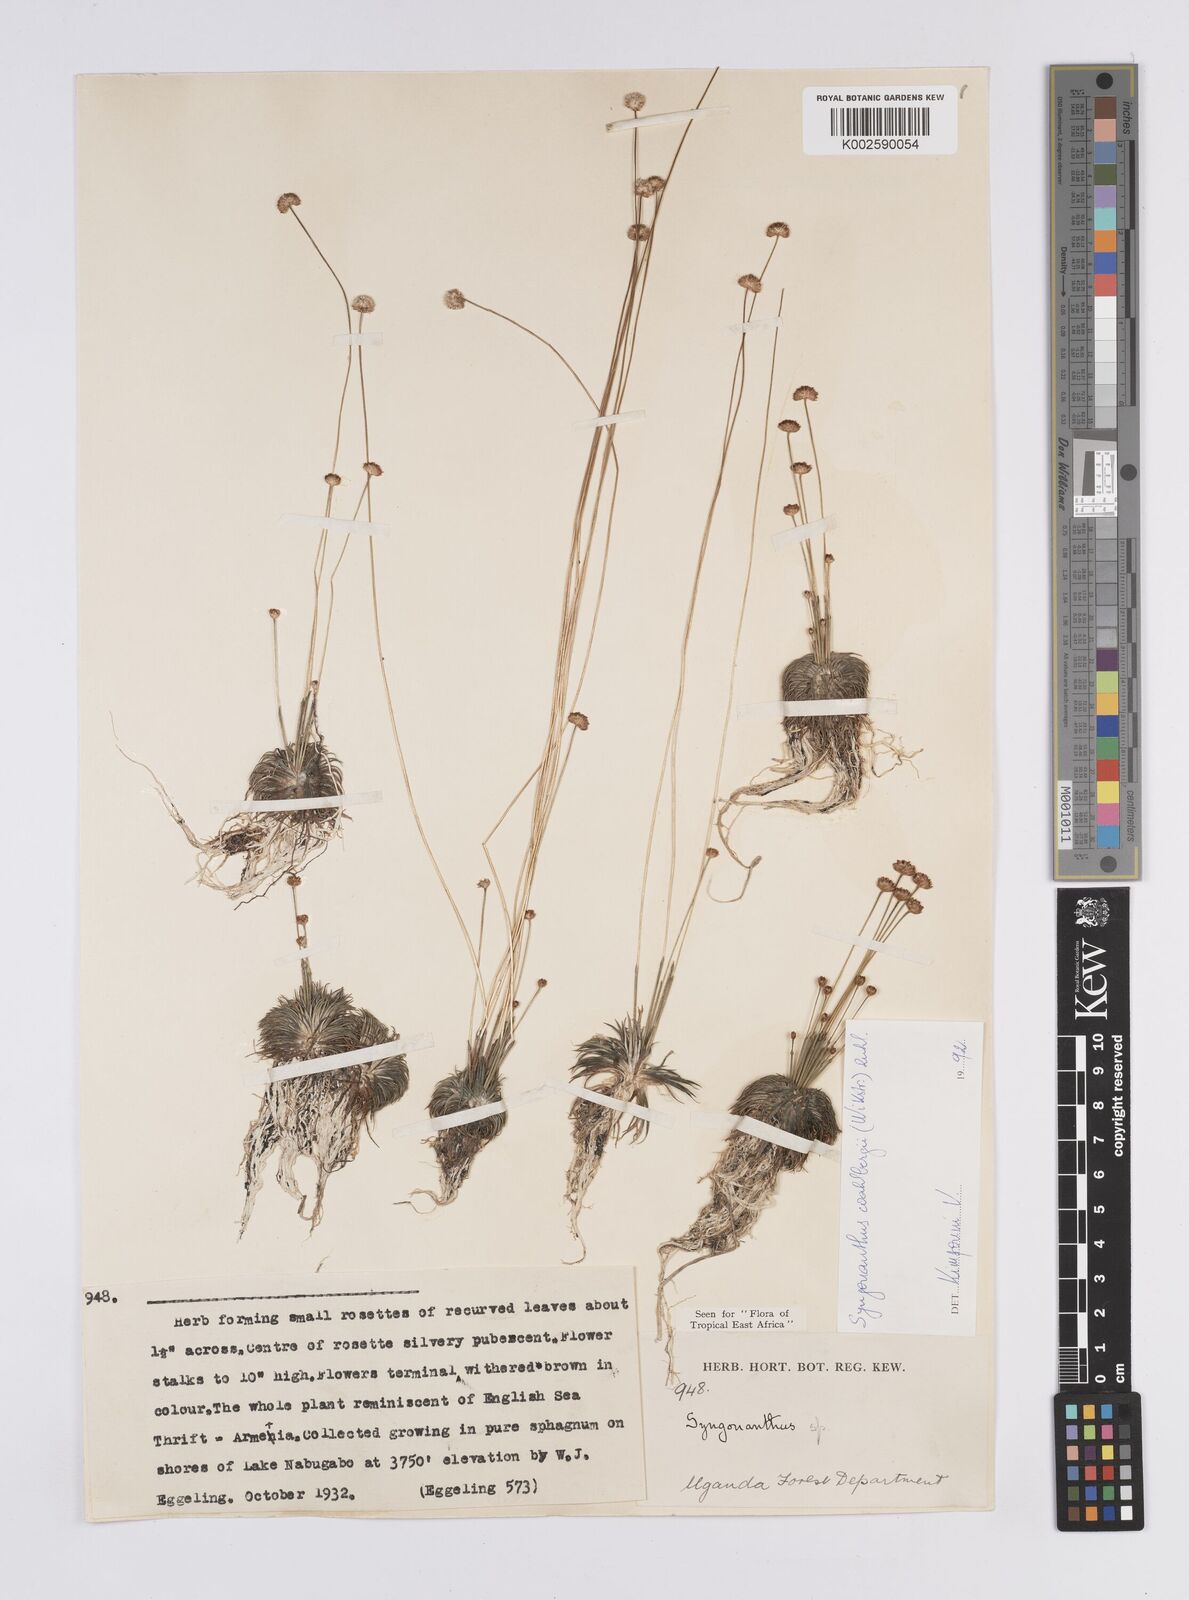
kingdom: Plantae
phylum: Tracheophyta
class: Liliopsida
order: Poales
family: Eriocaulaceae
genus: Syngonanthus
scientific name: Syngonanthus wahlbergii
